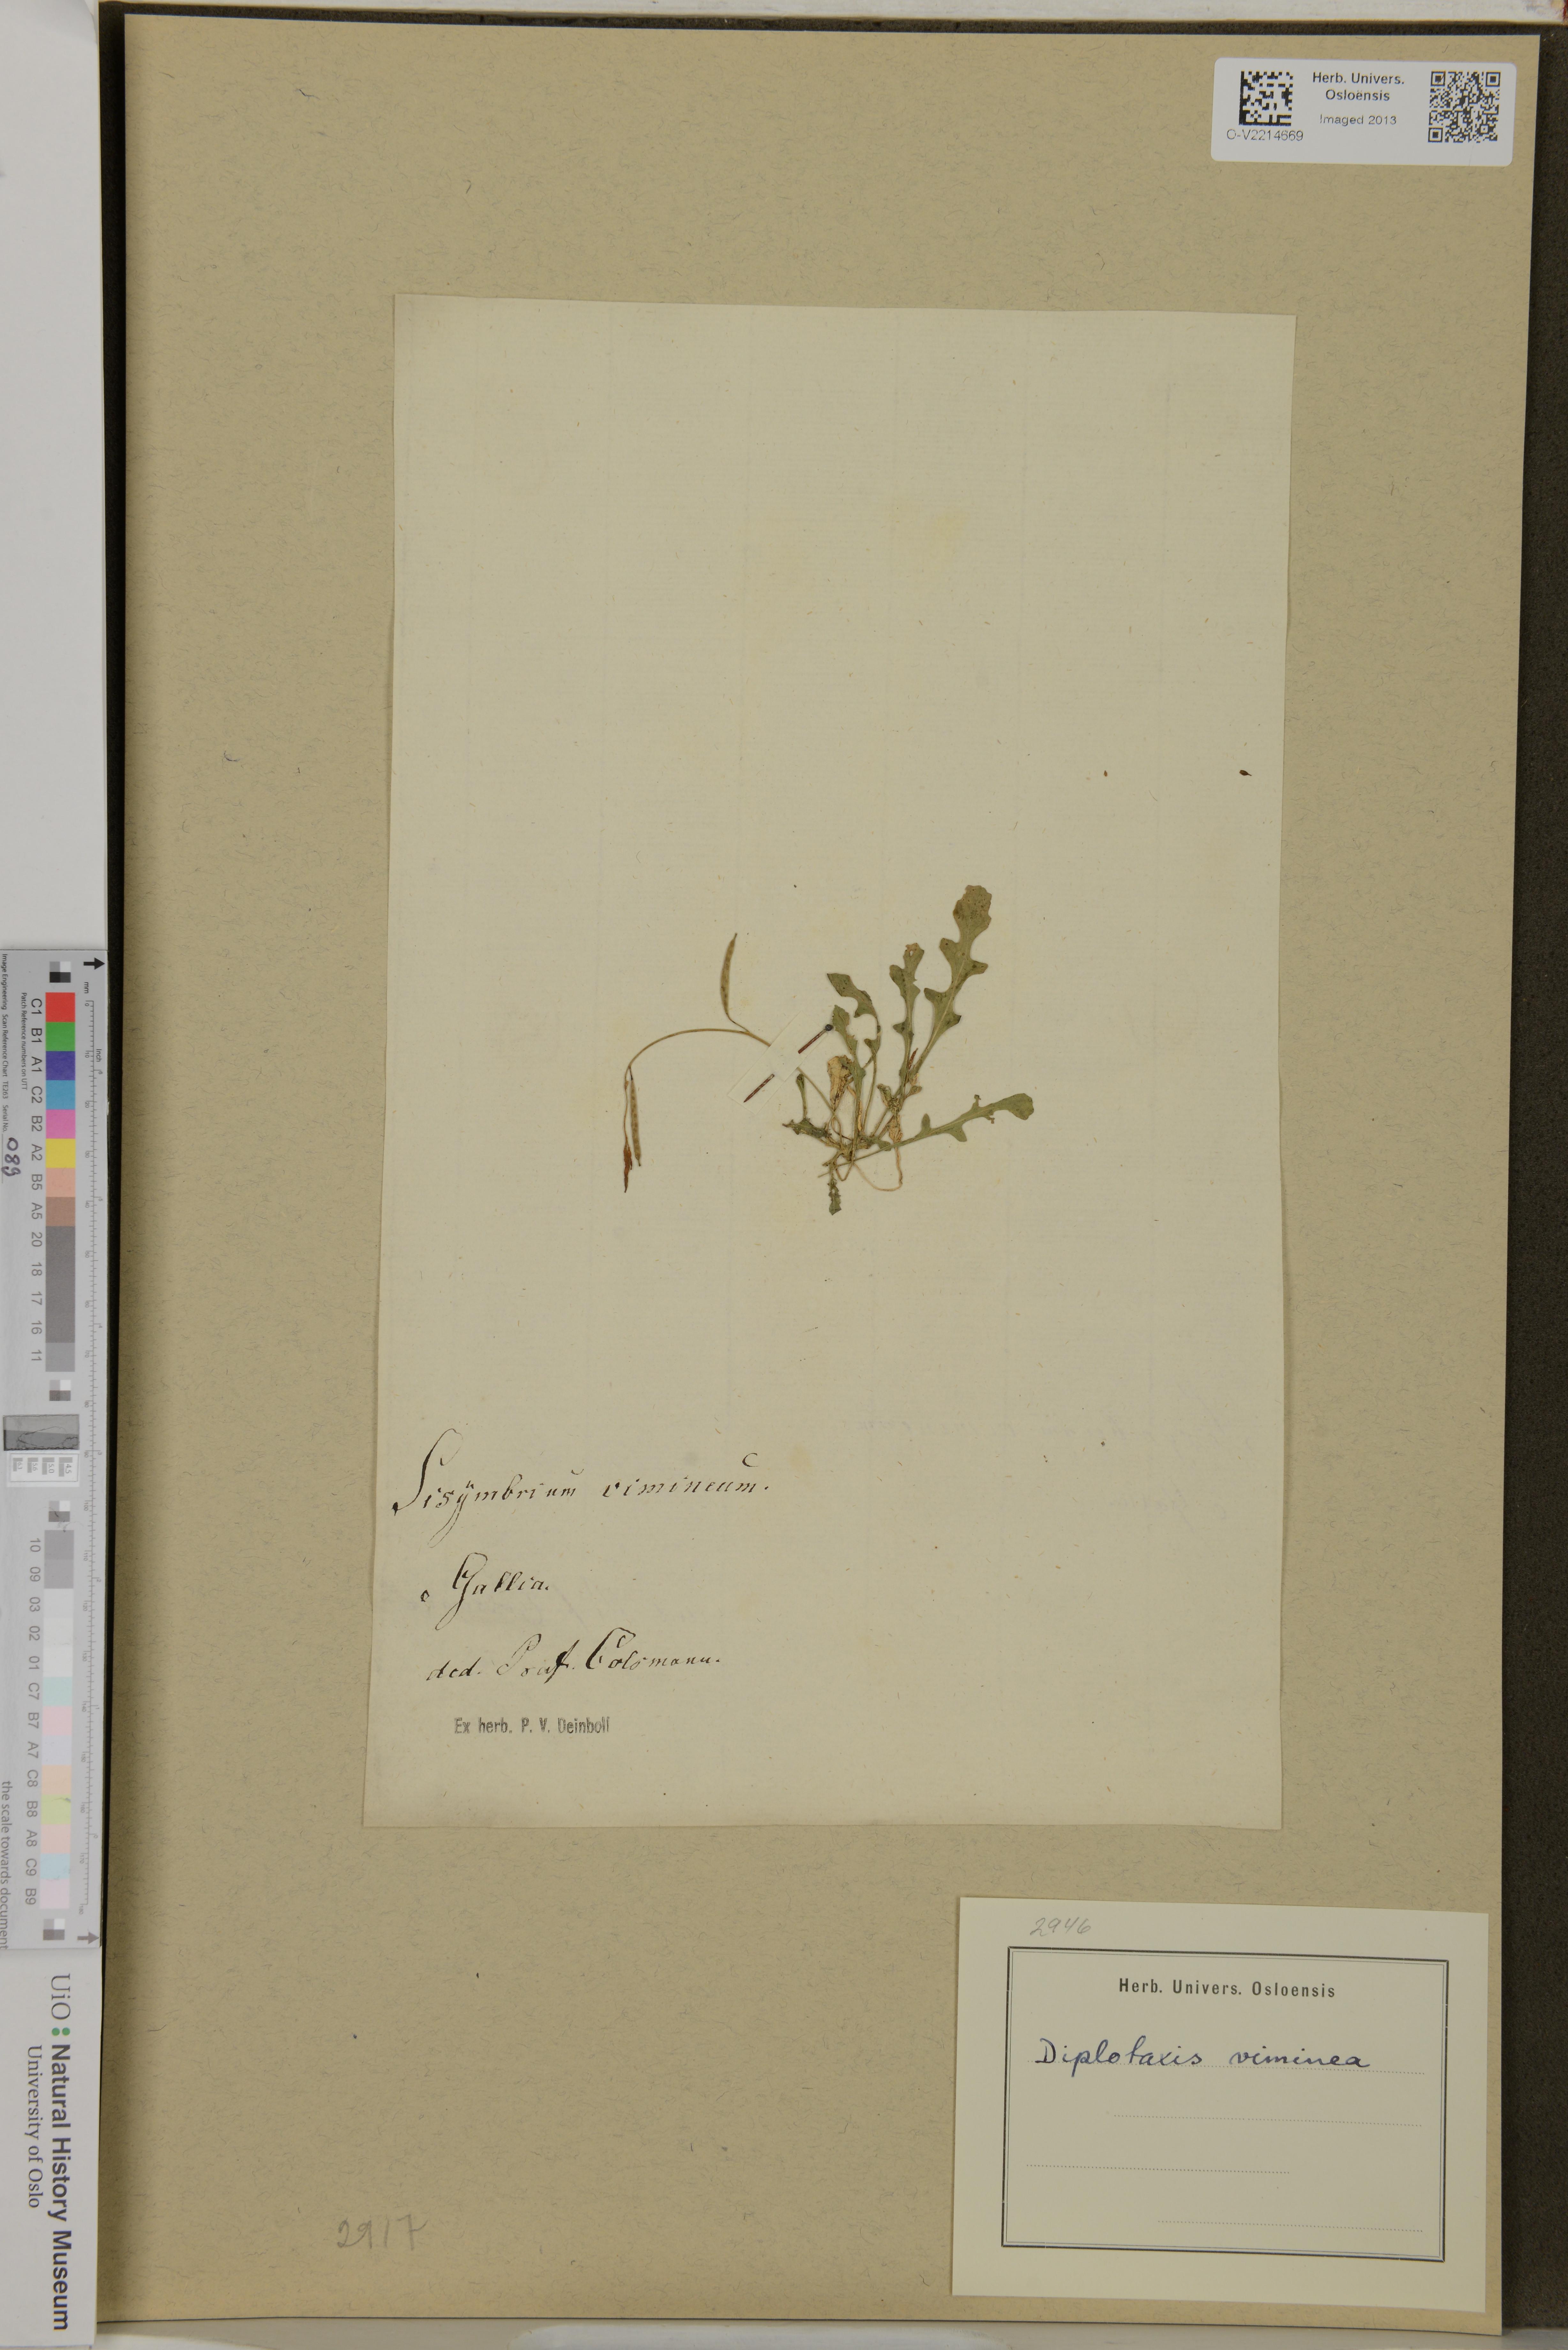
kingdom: Plantae
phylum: Tracheophyta
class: Magnoliopsida
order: Brassicales
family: Brassicaceae
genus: Diplotaxis
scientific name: Diplotaxis viminea
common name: Vineyard wall rocket
